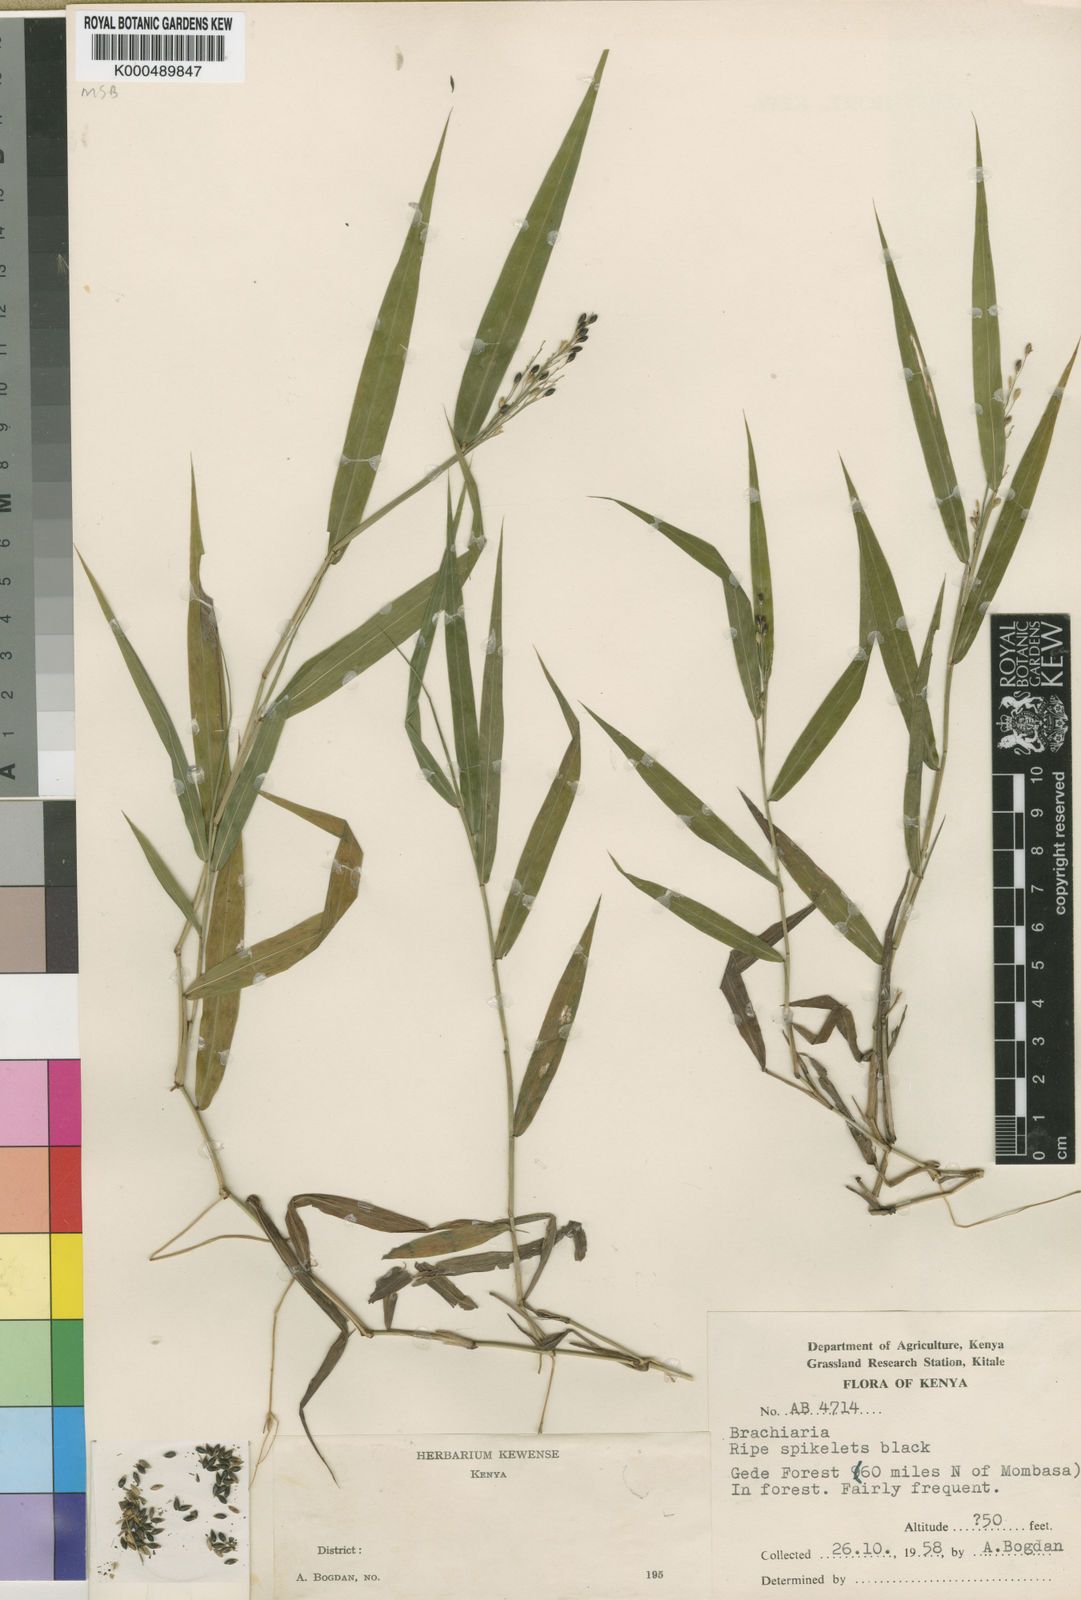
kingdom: Plantae
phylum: Tracheophyta
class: Liliopsida
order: Poales
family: Poaceae
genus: Acroceras
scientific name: Acroceras attenuatum
